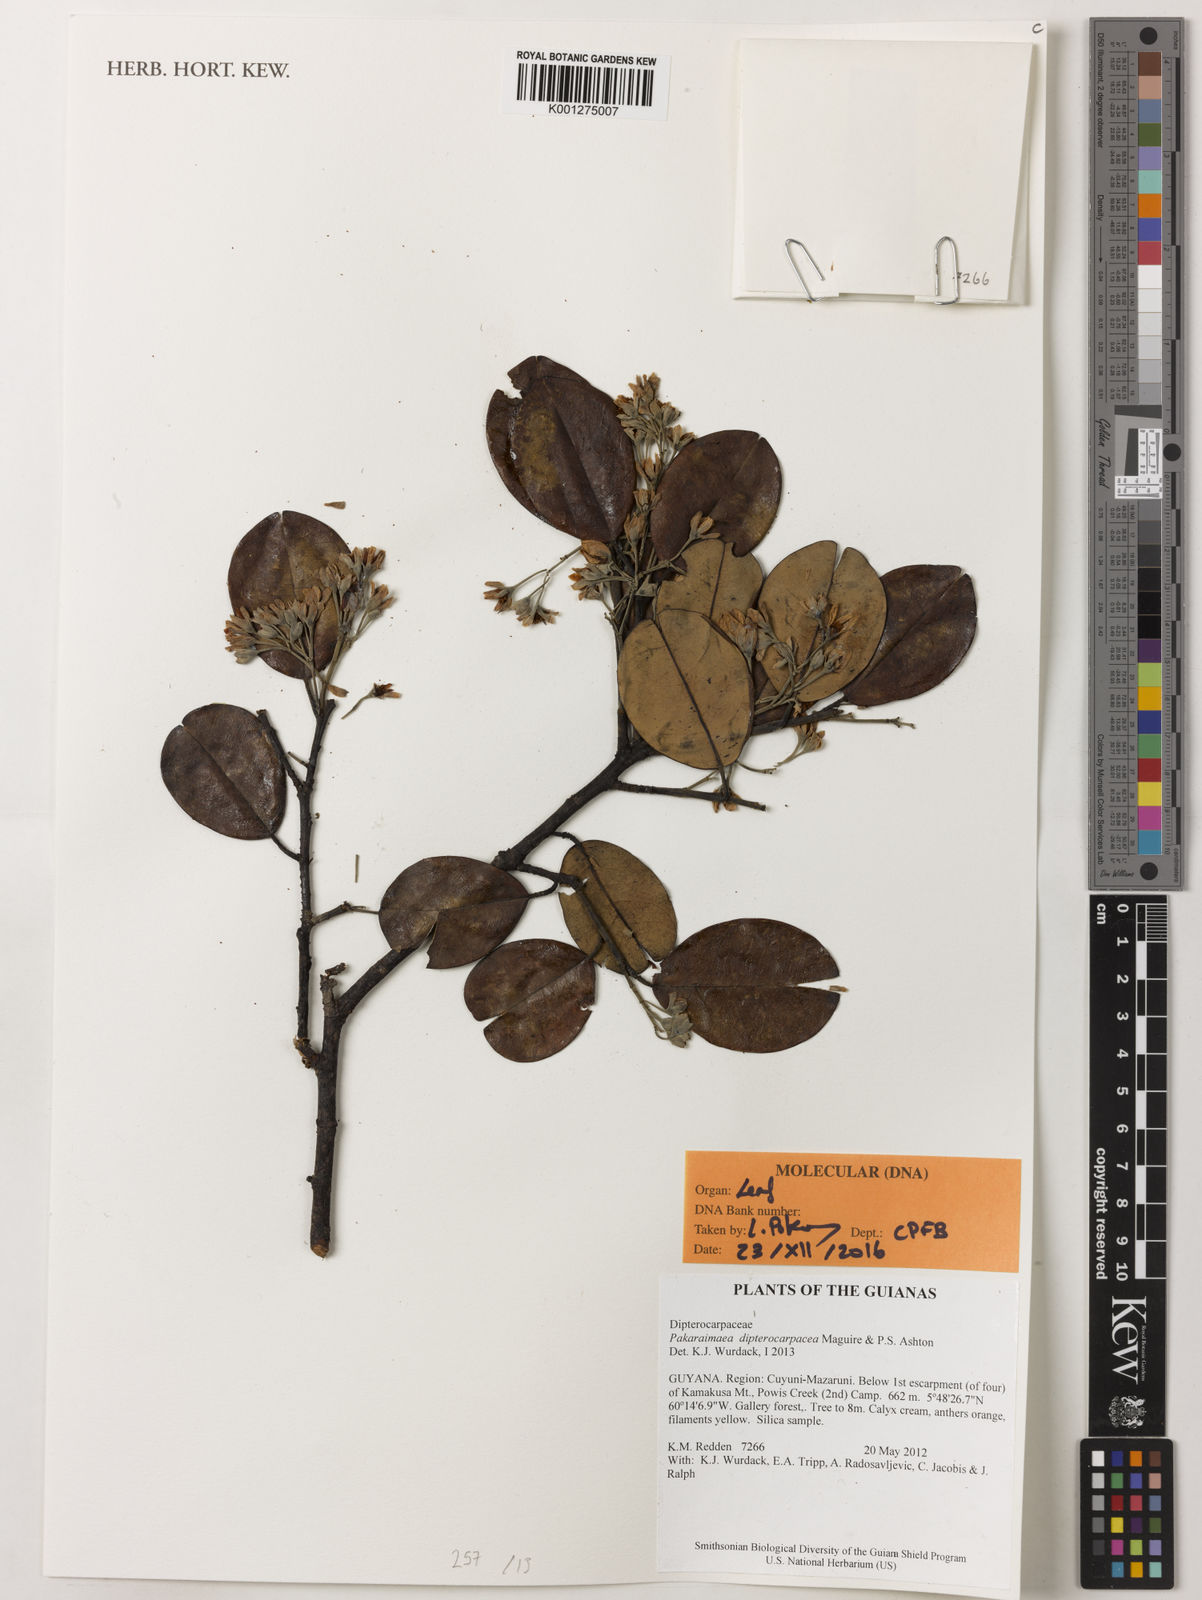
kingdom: Plantae
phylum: Tracheophyta
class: Magnoliopsida
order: Malvales
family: Dipterocarpaceae
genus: Pakaraimaea
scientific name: Pakaraimaea dipterocarpacea
